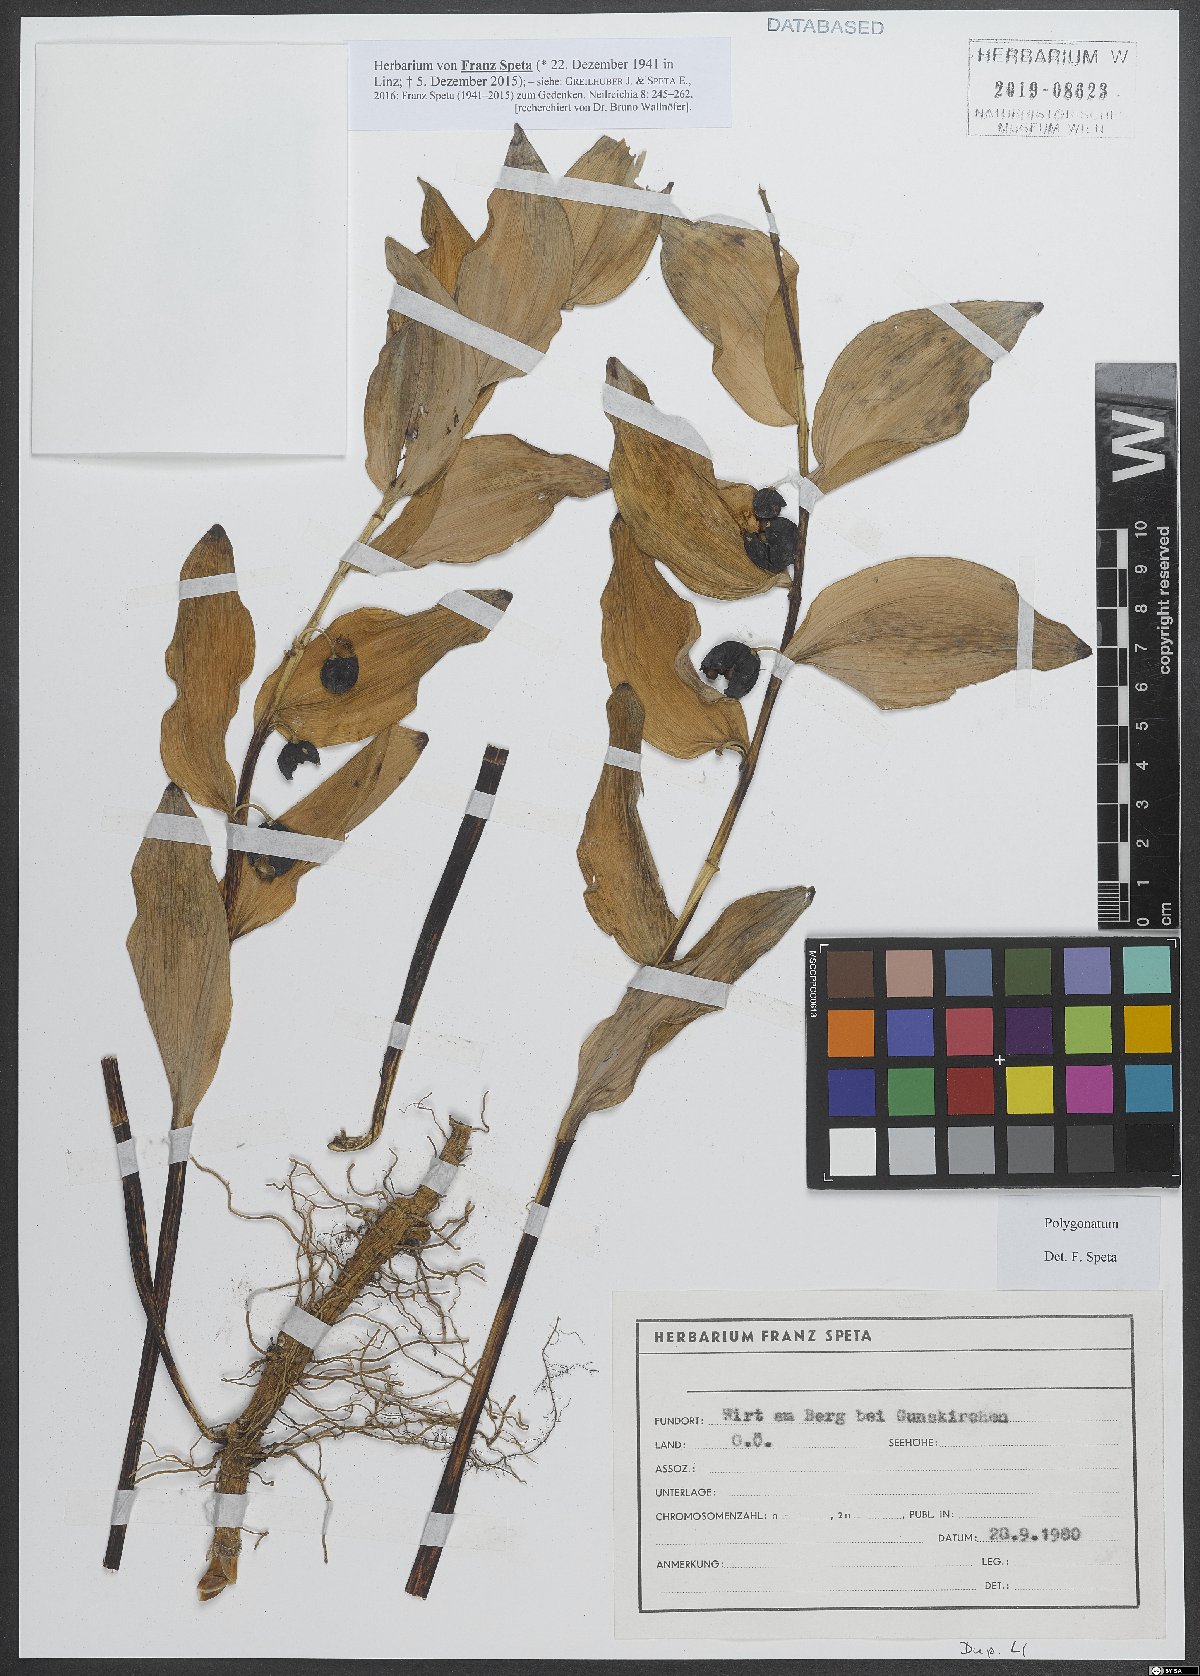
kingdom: Plantae
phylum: Tracheophyta
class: Liliopsida
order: Asparagales
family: Asparagaceae
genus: Polygonatum
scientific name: Polygonatum
